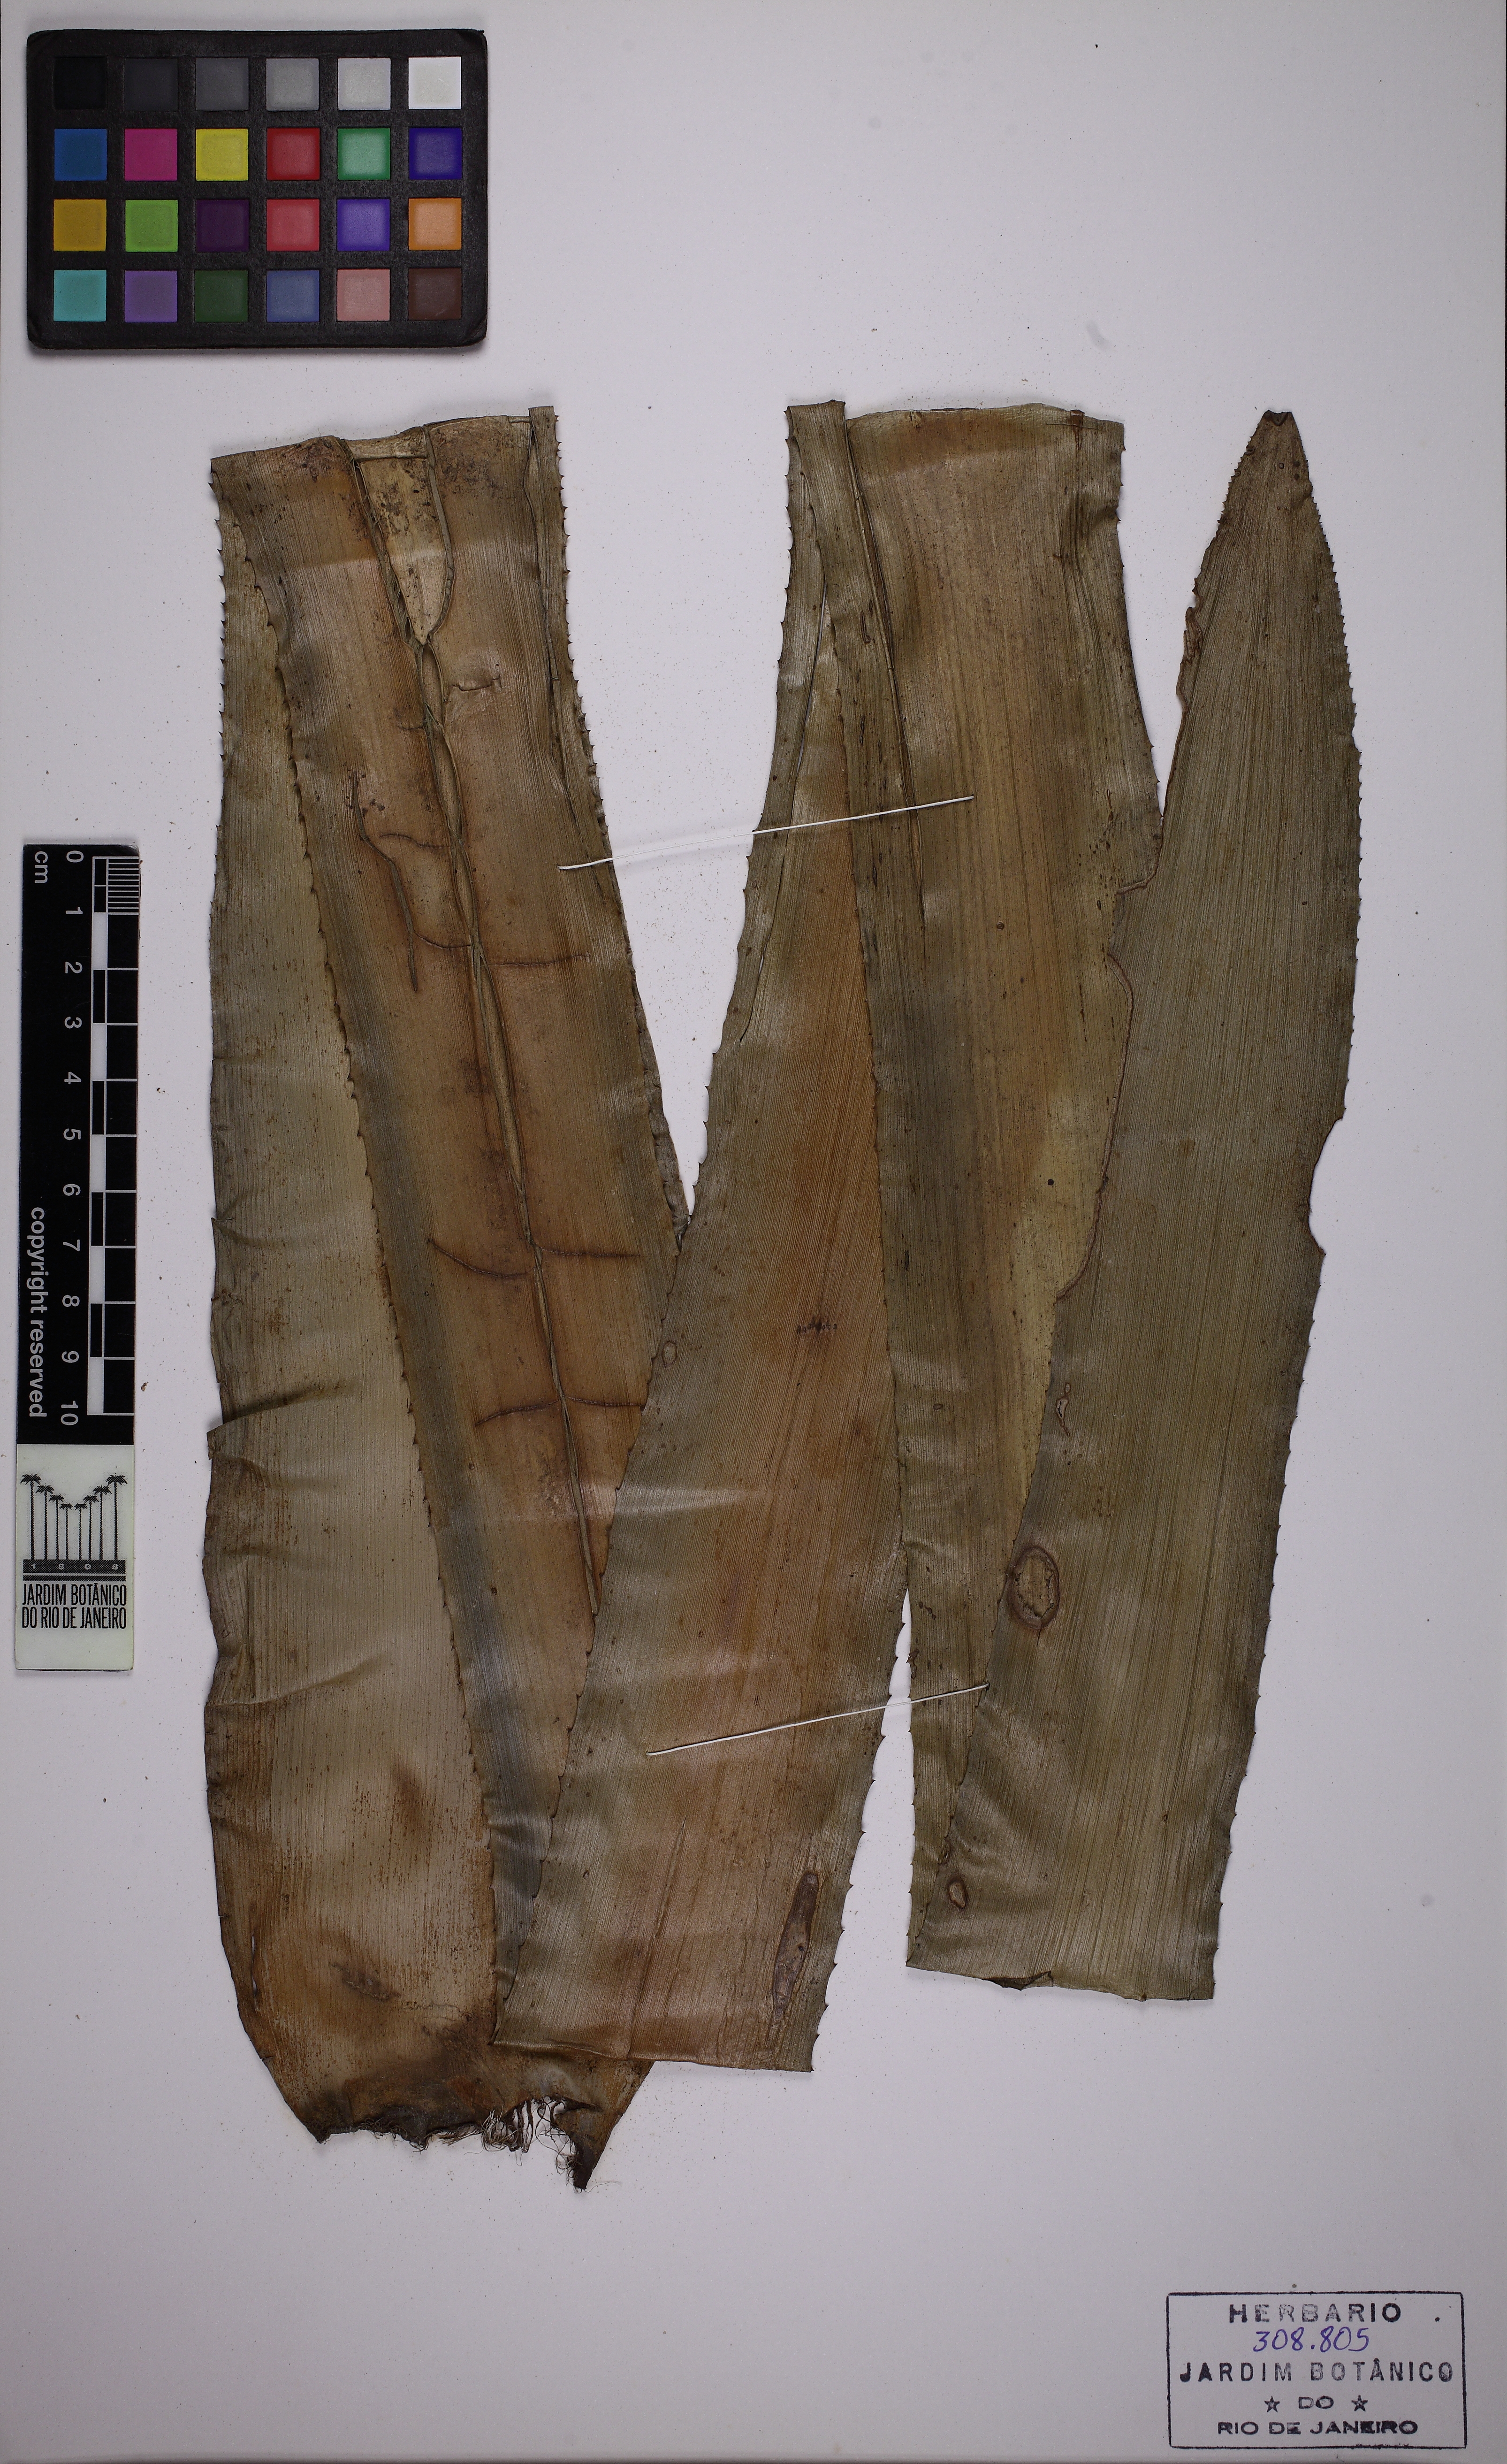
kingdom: Plantae
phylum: Tracheophyta
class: Liliopsida
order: Poales
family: Bromeliaceae
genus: Billbergia
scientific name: Billbergia brasiliensis
